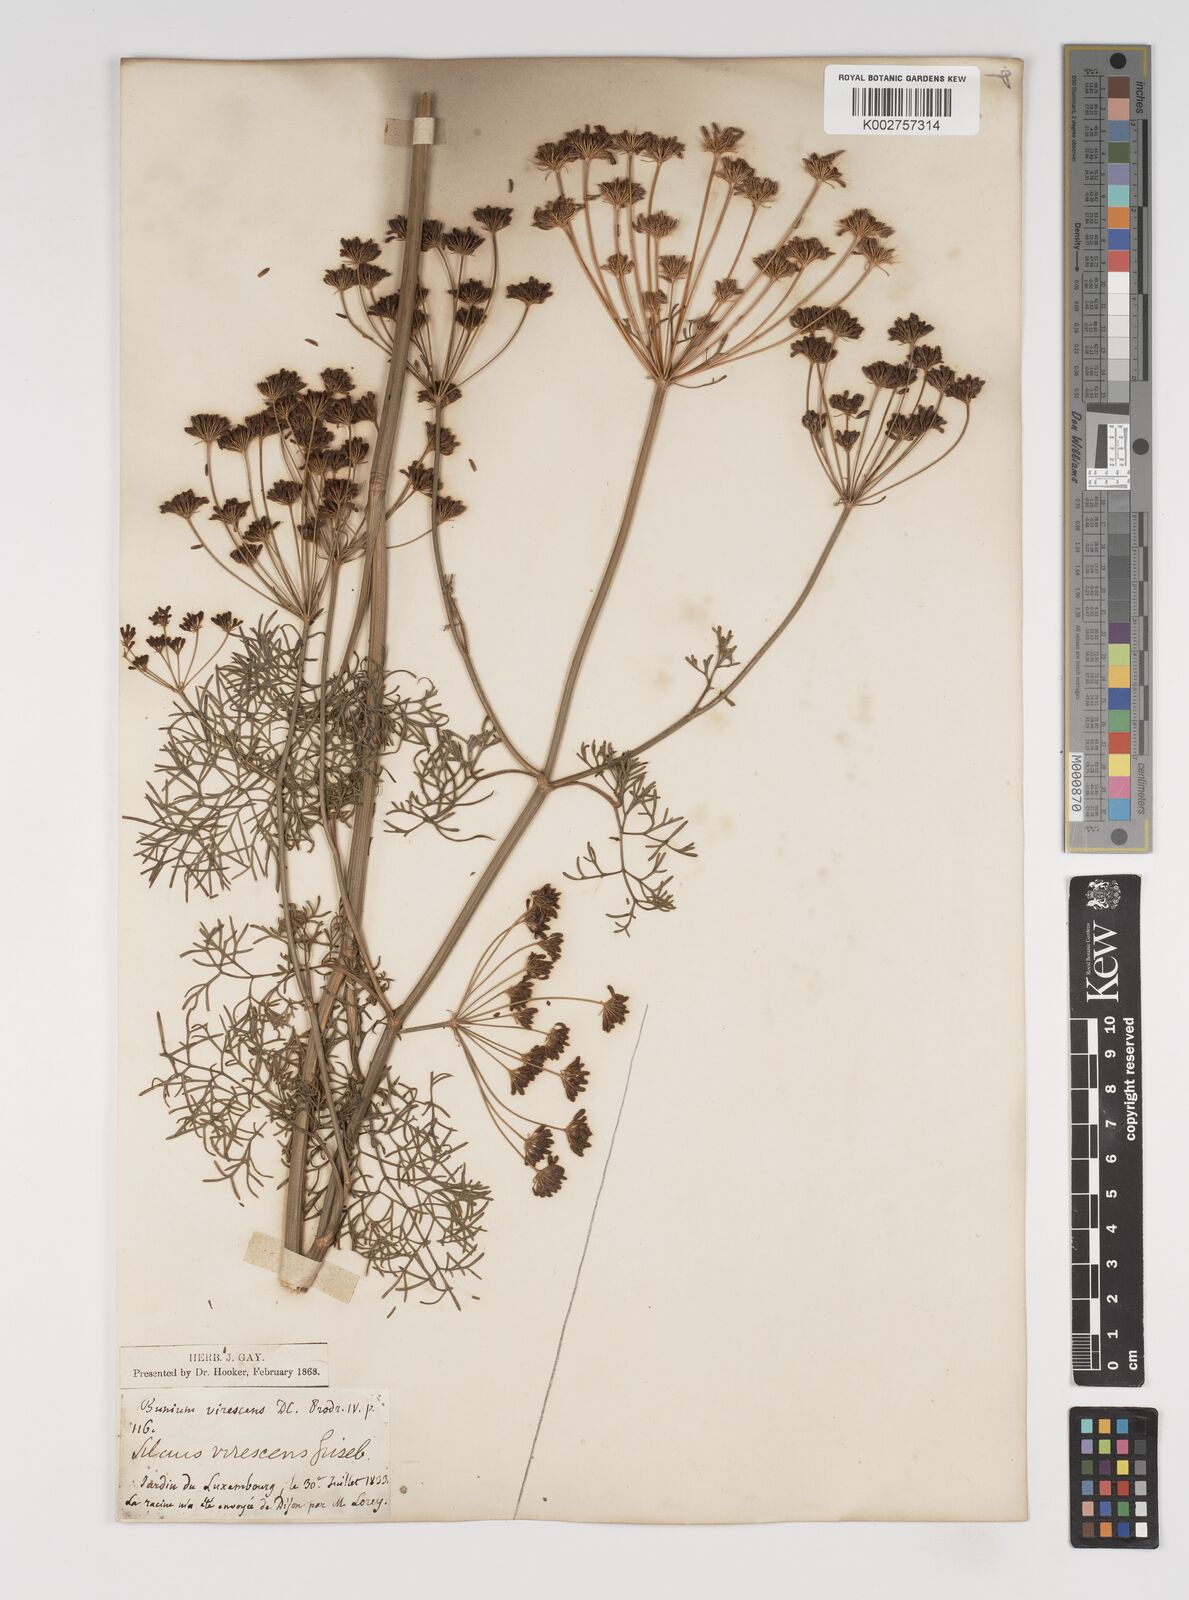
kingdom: Plantae
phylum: Tracheophyta
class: Magnoliopsida
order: Apiales
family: Apiaceae
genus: Gasparinia
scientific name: Gasparinia peucedanoides
